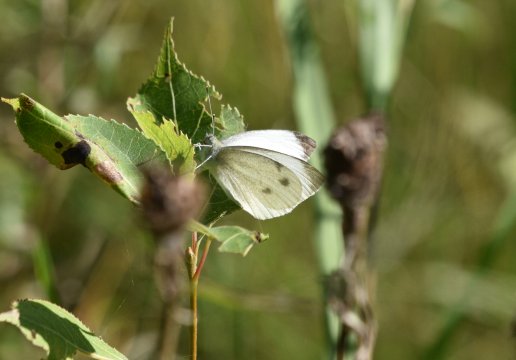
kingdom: Animalia
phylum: Arthropoda
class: Insecta
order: Lepidoptera
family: Pieridae
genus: Pieris
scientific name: Pieris rapae
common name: Cabbage White
